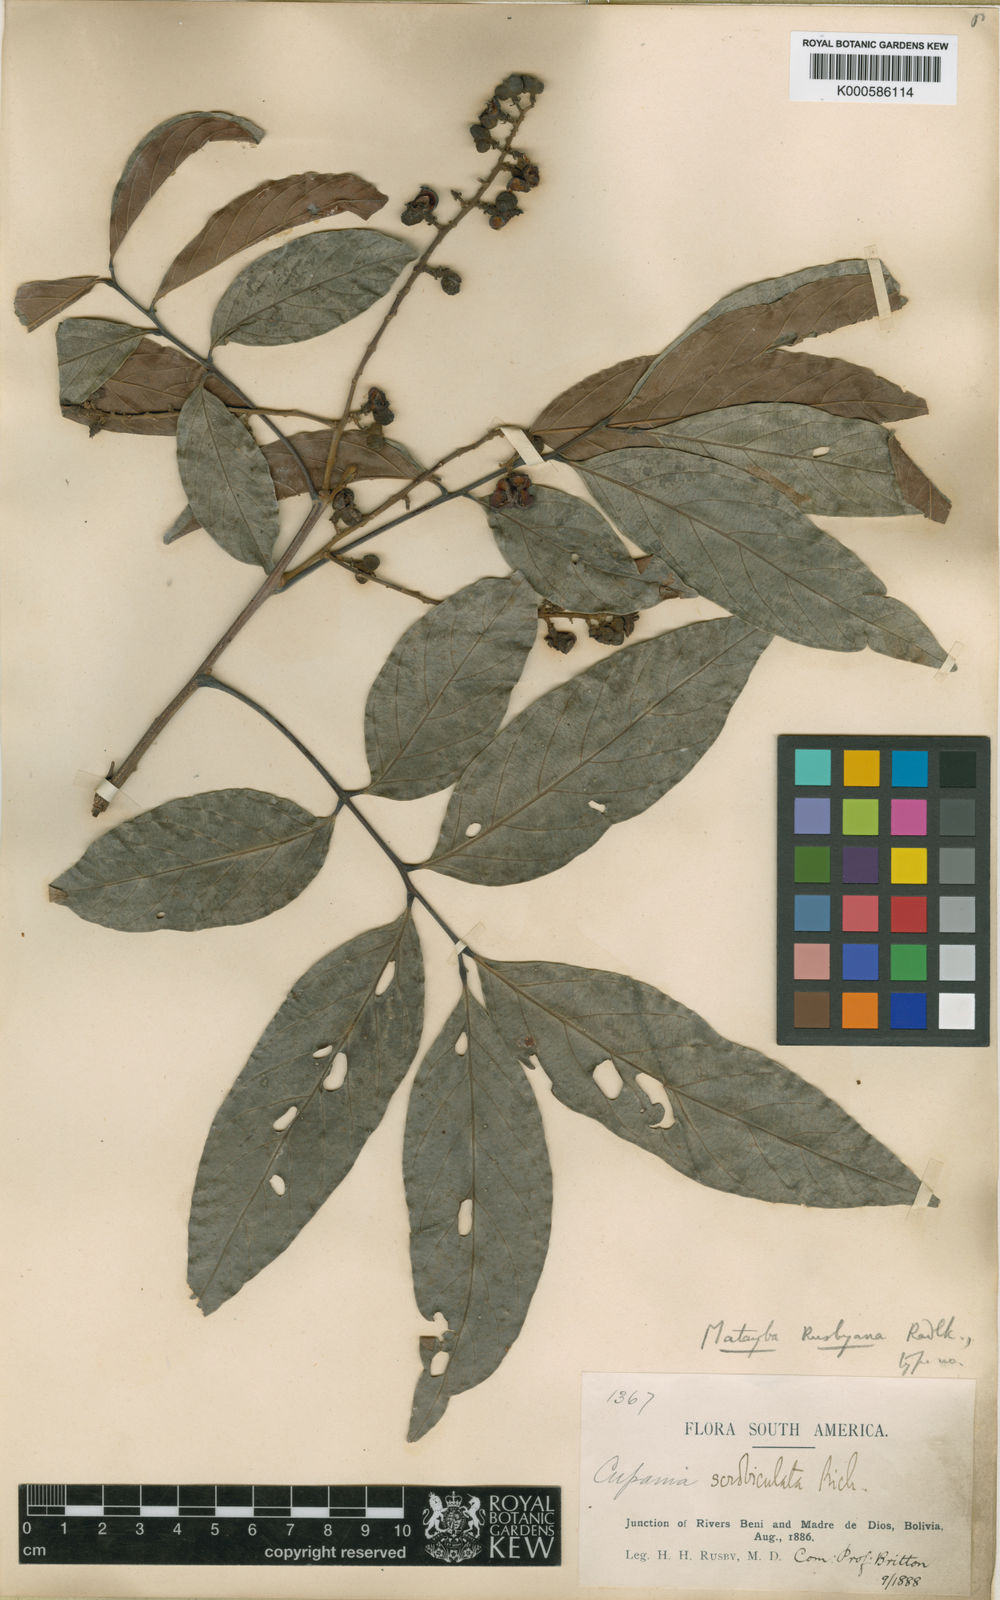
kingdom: Plantae
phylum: Tracheophyta
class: Magnoliopsida
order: Sapindales
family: Sapindaceae
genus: Matayba
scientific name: Matayba
